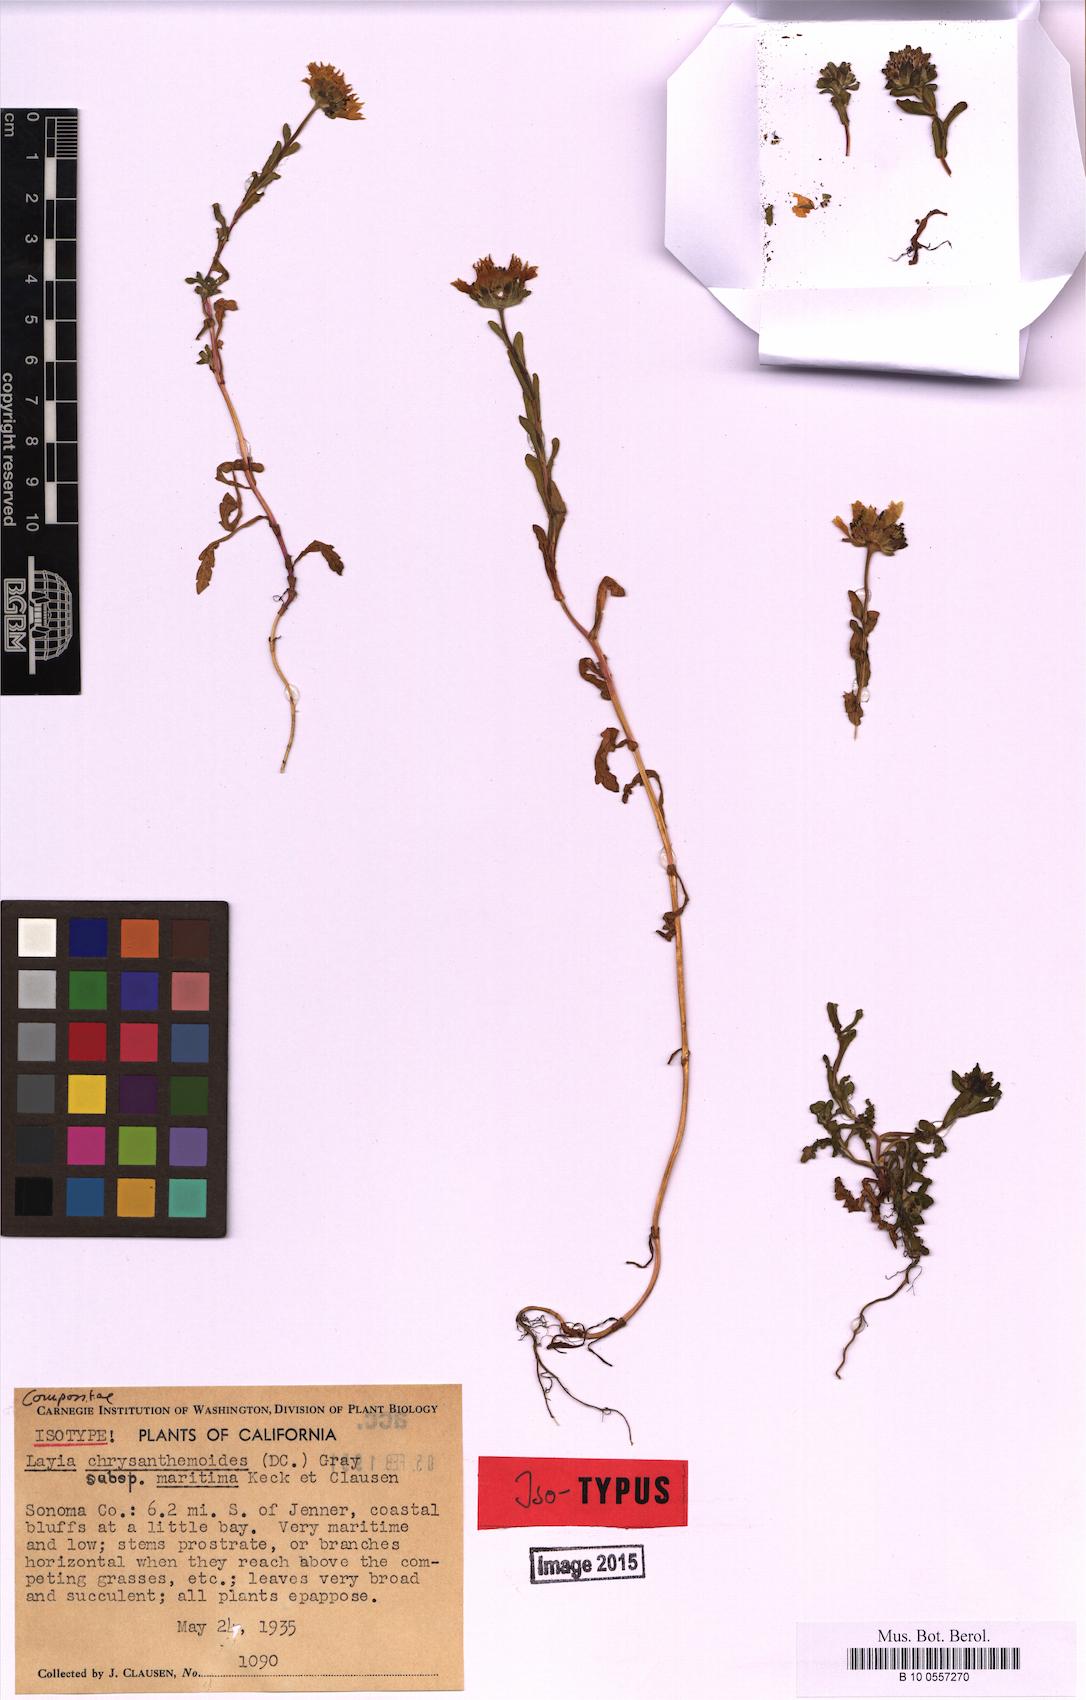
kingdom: Plantae
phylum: Tracheophyta
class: Magnoliopsida
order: Asterales
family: Asteraceae
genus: Layia
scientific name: Layia chrysanthemoides
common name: Smooth layia
